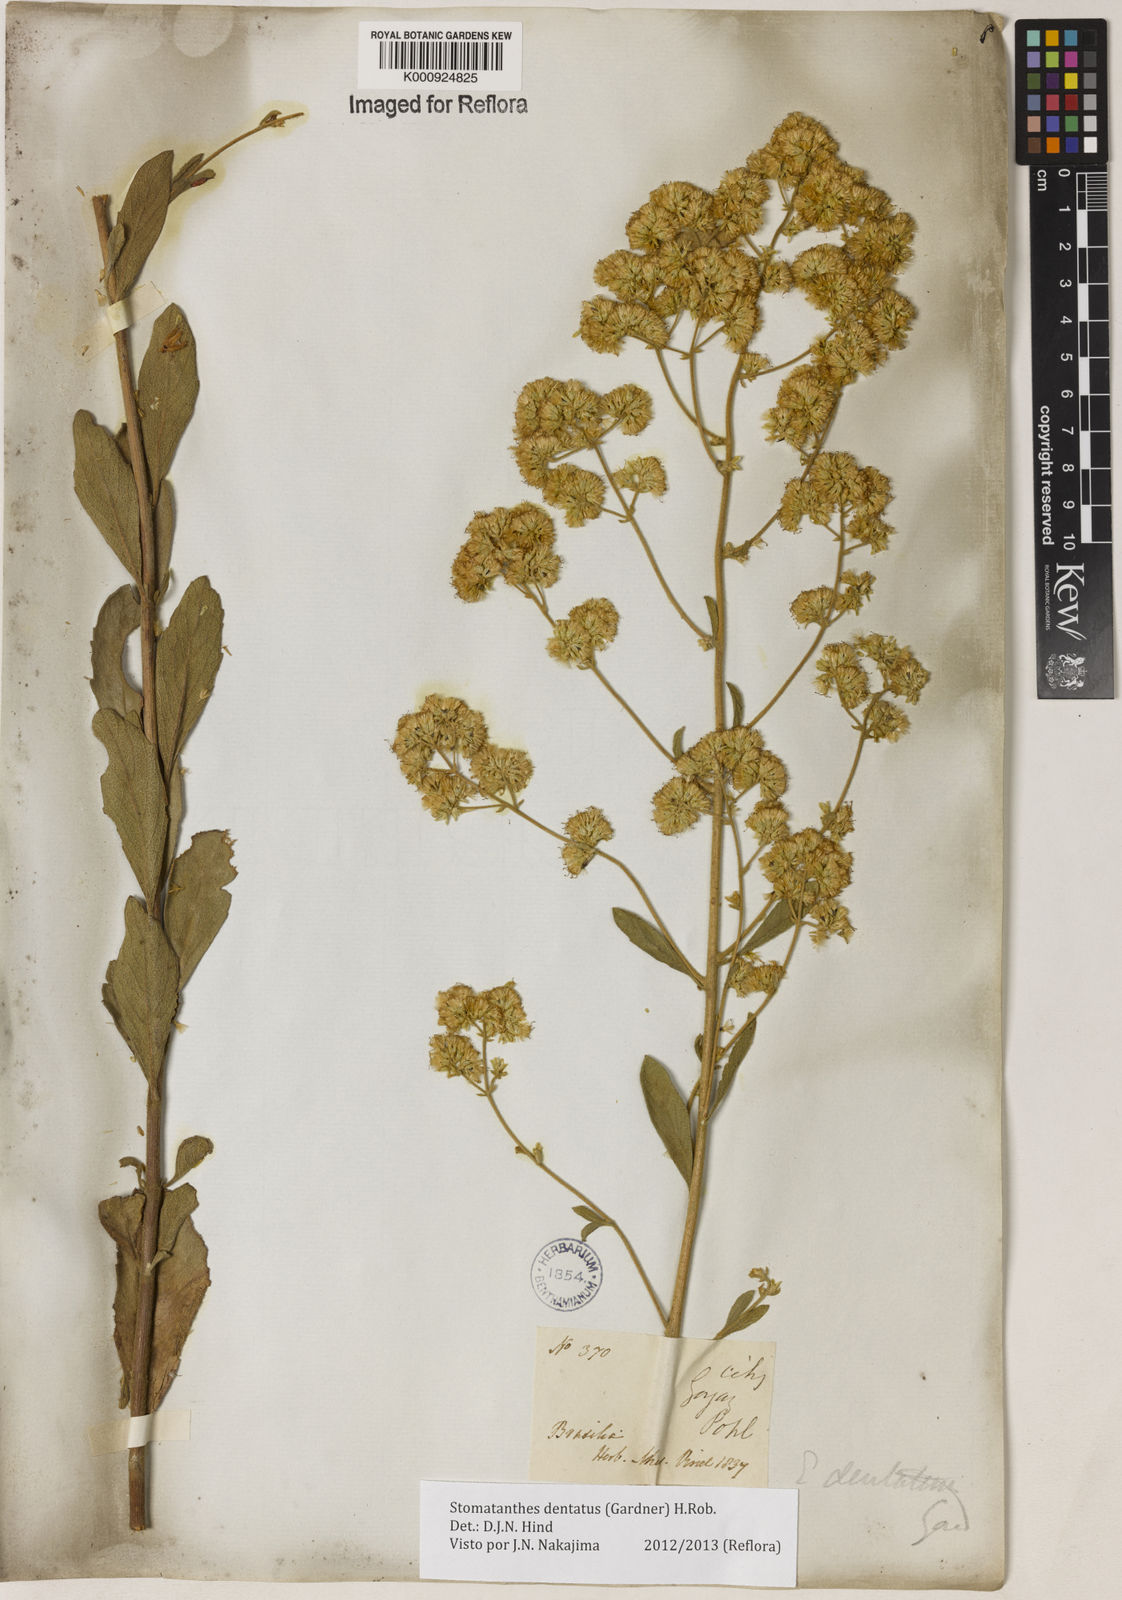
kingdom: Plantae
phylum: Tracheophyta
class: Magnoliopsida
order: Asterales
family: Asteraceae
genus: Stomatanthes
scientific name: Stomatanthes dentatus
